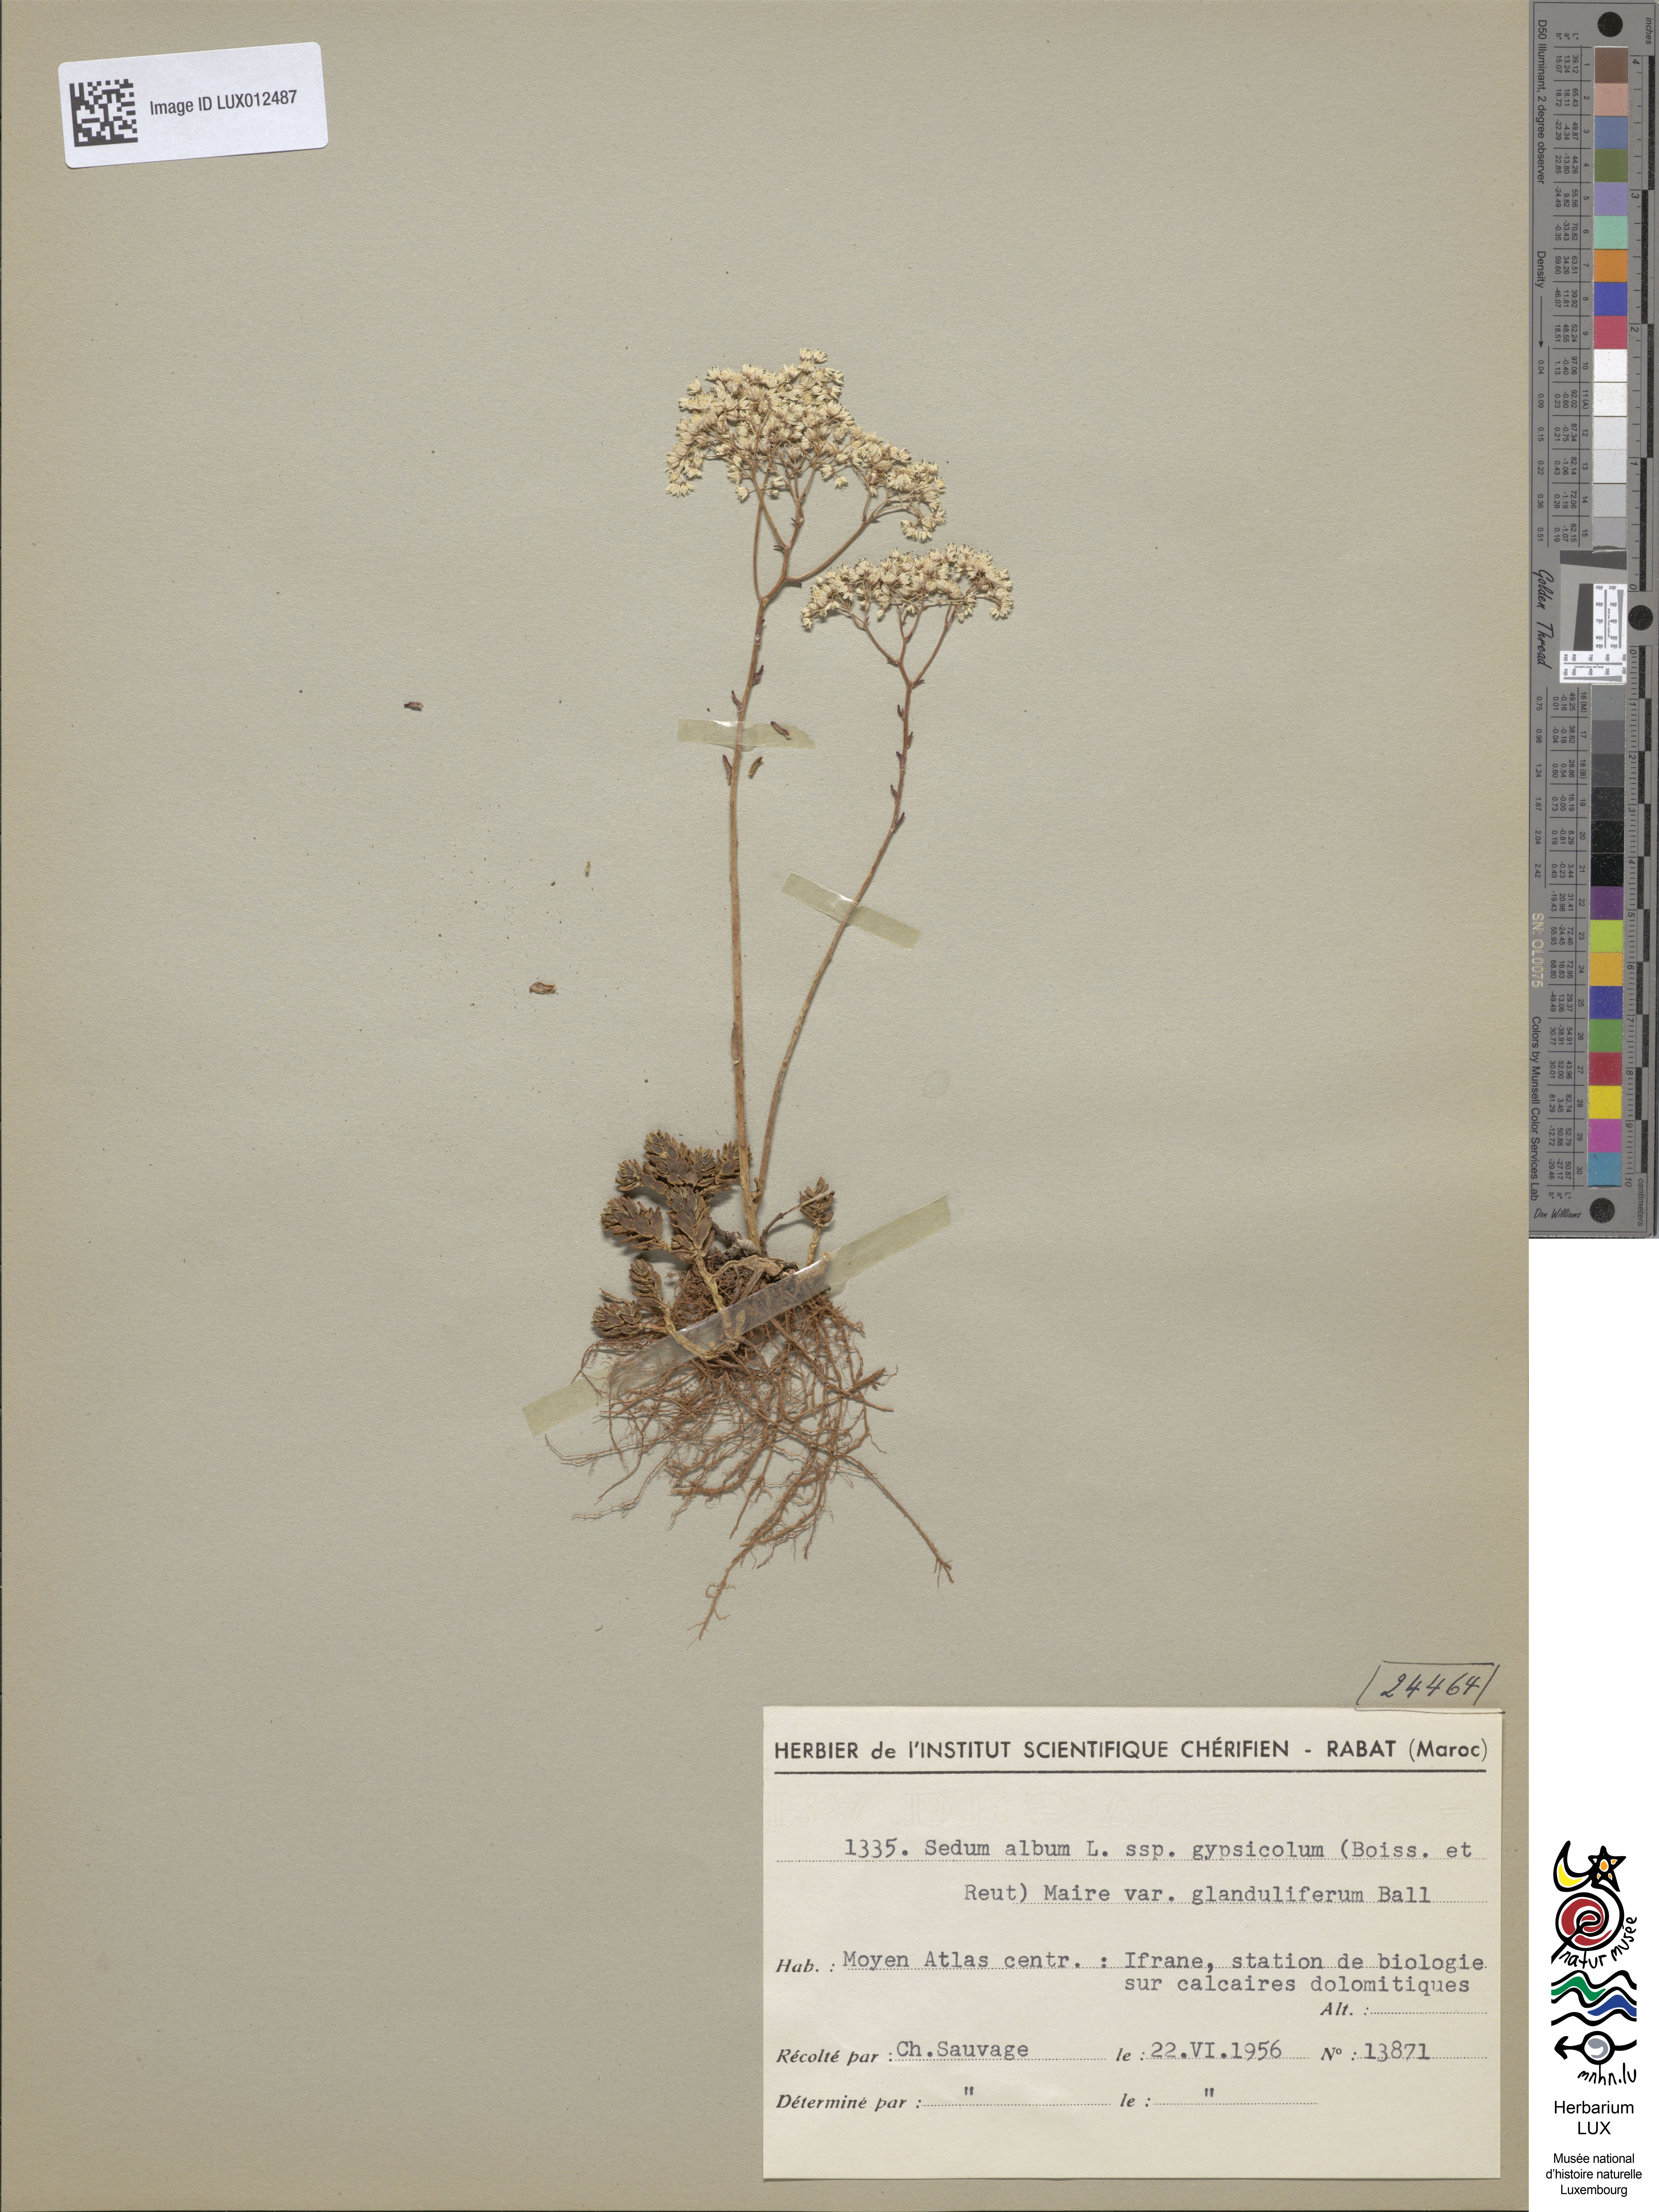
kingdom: Plantae
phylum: Tracheophyta
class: Magnoliopsida
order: Saxifragales
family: Crassulaceae
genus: Sedum
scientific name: Sedum gypsicola
